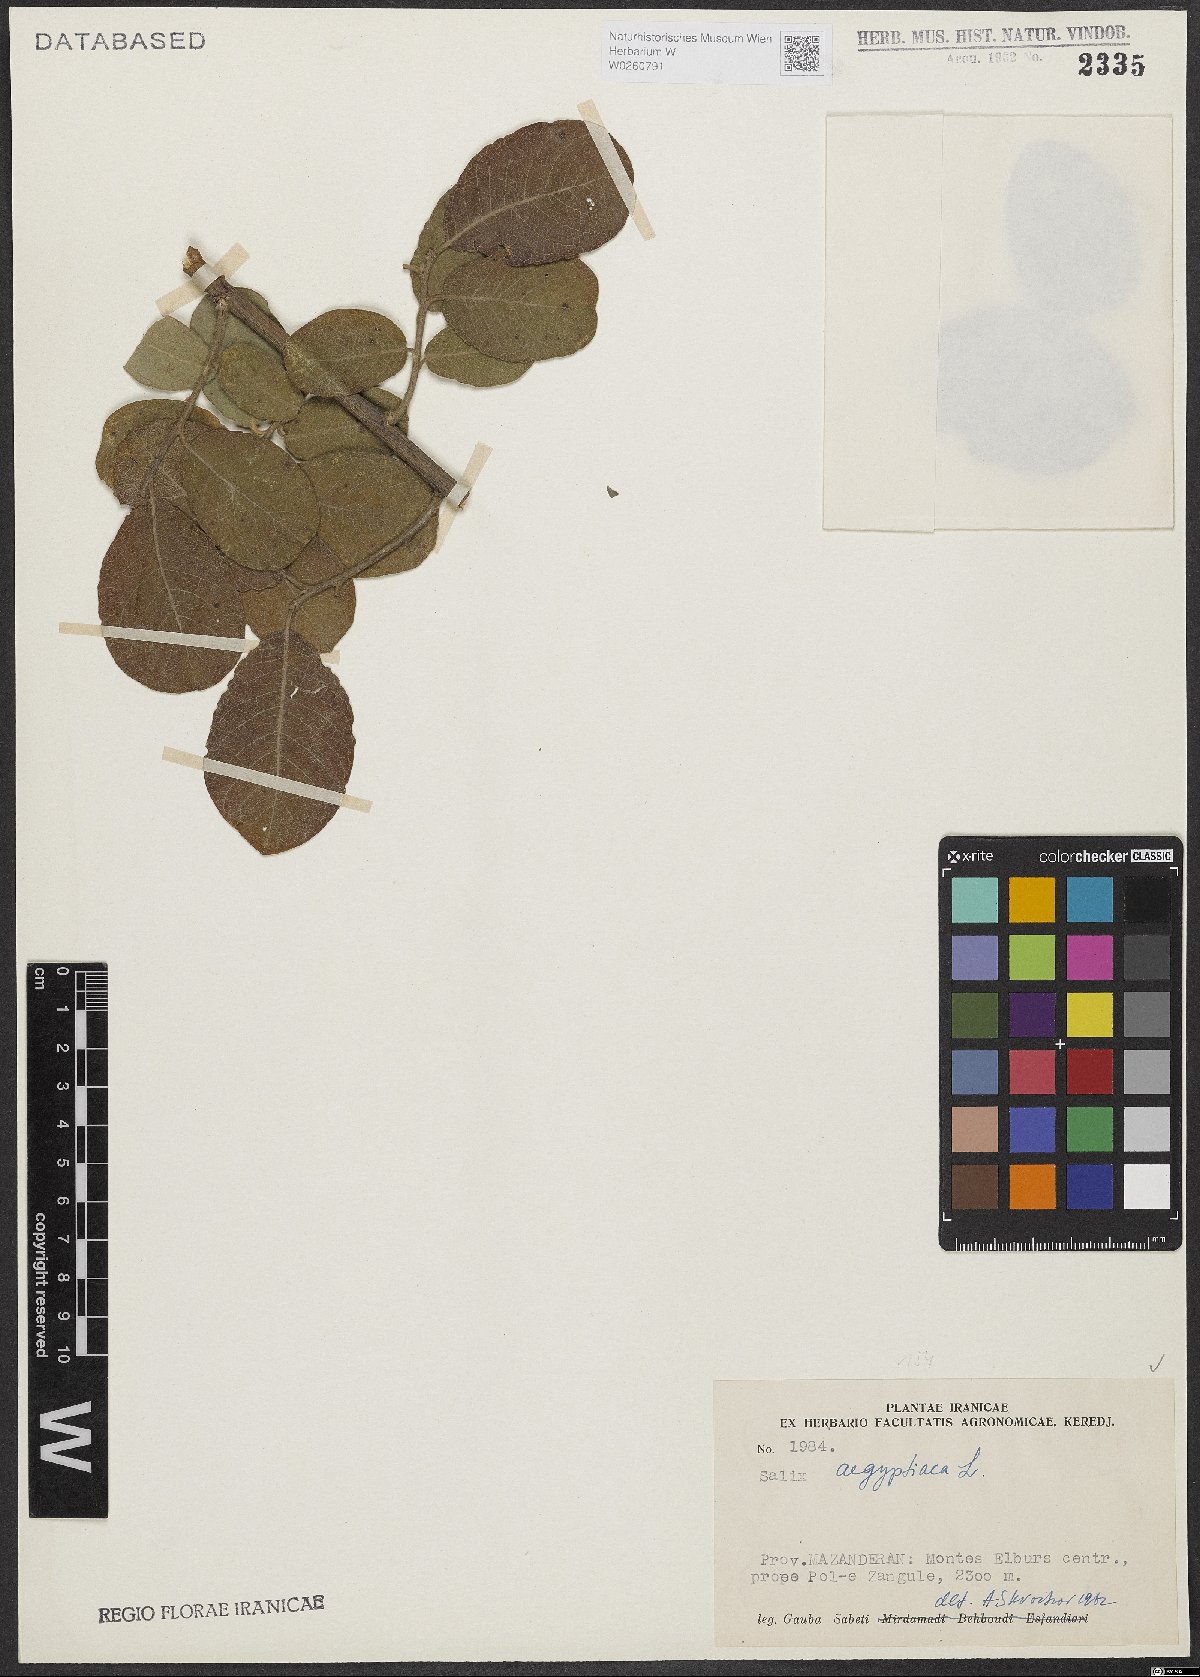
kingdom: Plantae
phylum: Tracheophyta
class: Magnoliopsida
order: Malpighiales
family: Salicaceae
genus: Salix
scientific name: Salix aegyptiaca
